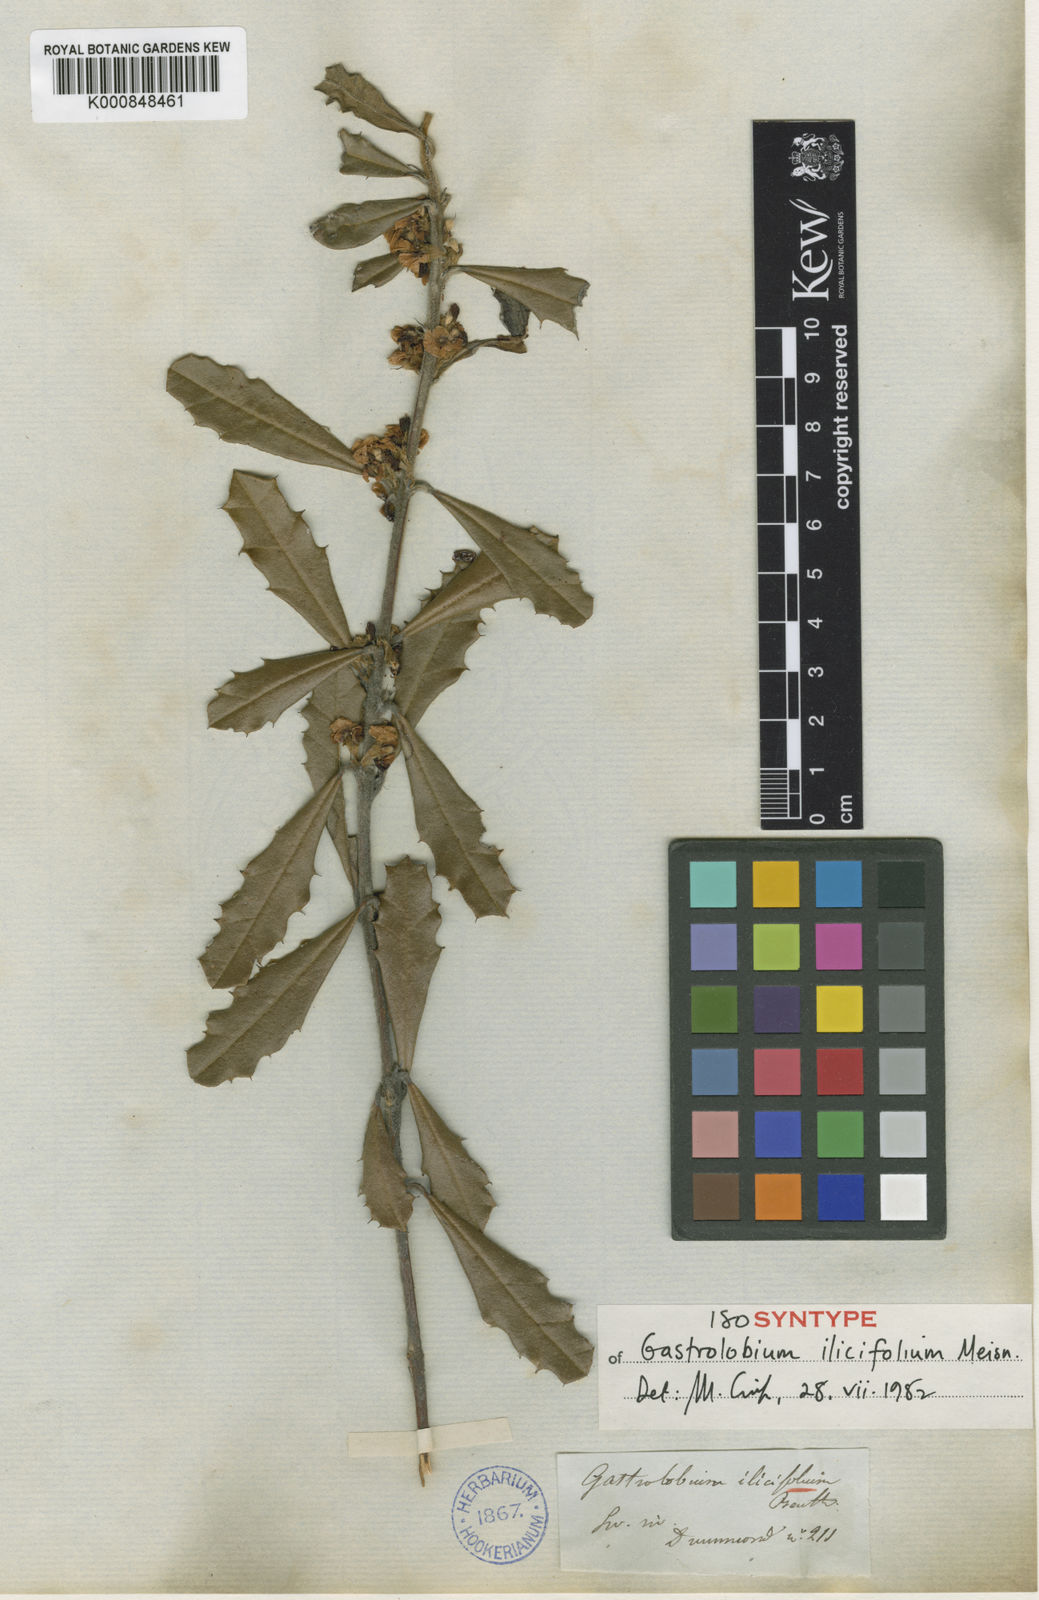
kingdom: Plantae
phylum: Tracheophyta
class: Magnoliopsida
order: Fabales
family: Fabaceae
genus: Gastrolobium
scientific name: Gastrolobium ilicifolium
